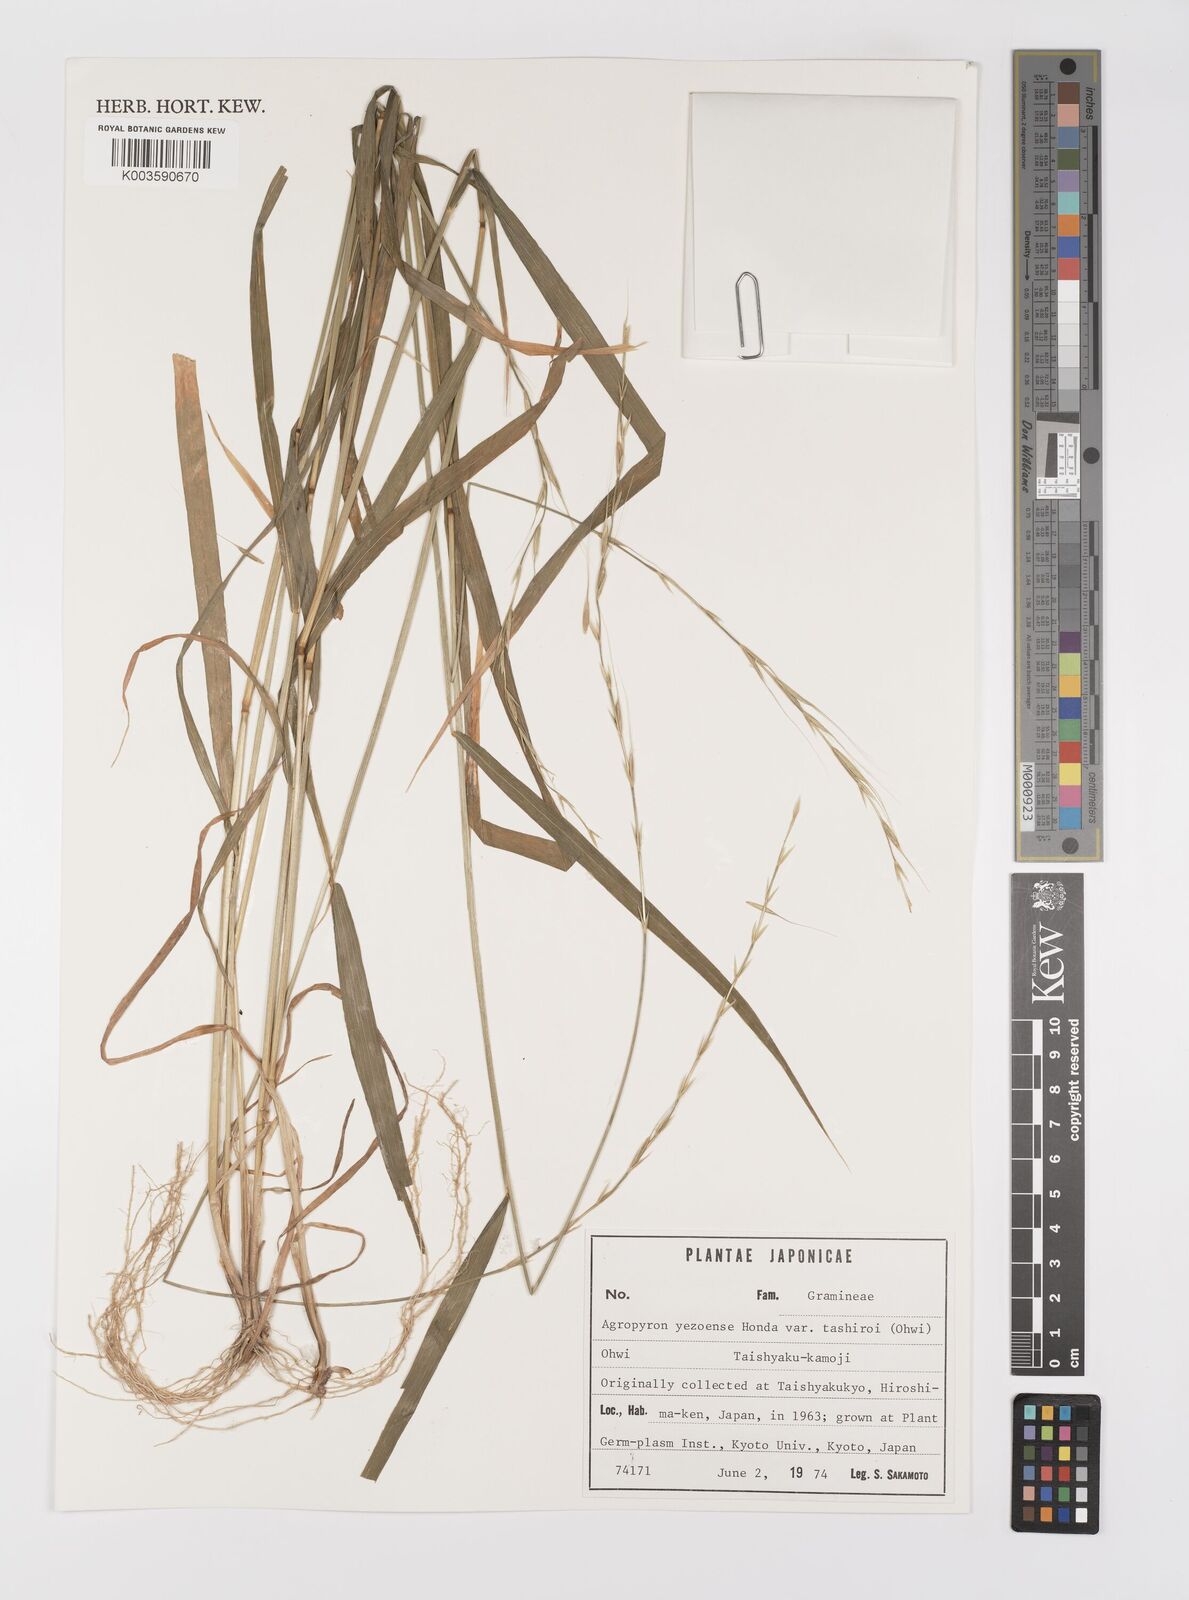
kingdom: Plantae
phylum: Tracheophyta
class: Liliopsida
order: Poales
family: Poaceae
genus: Elymus
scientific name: Elymus nipponicus
